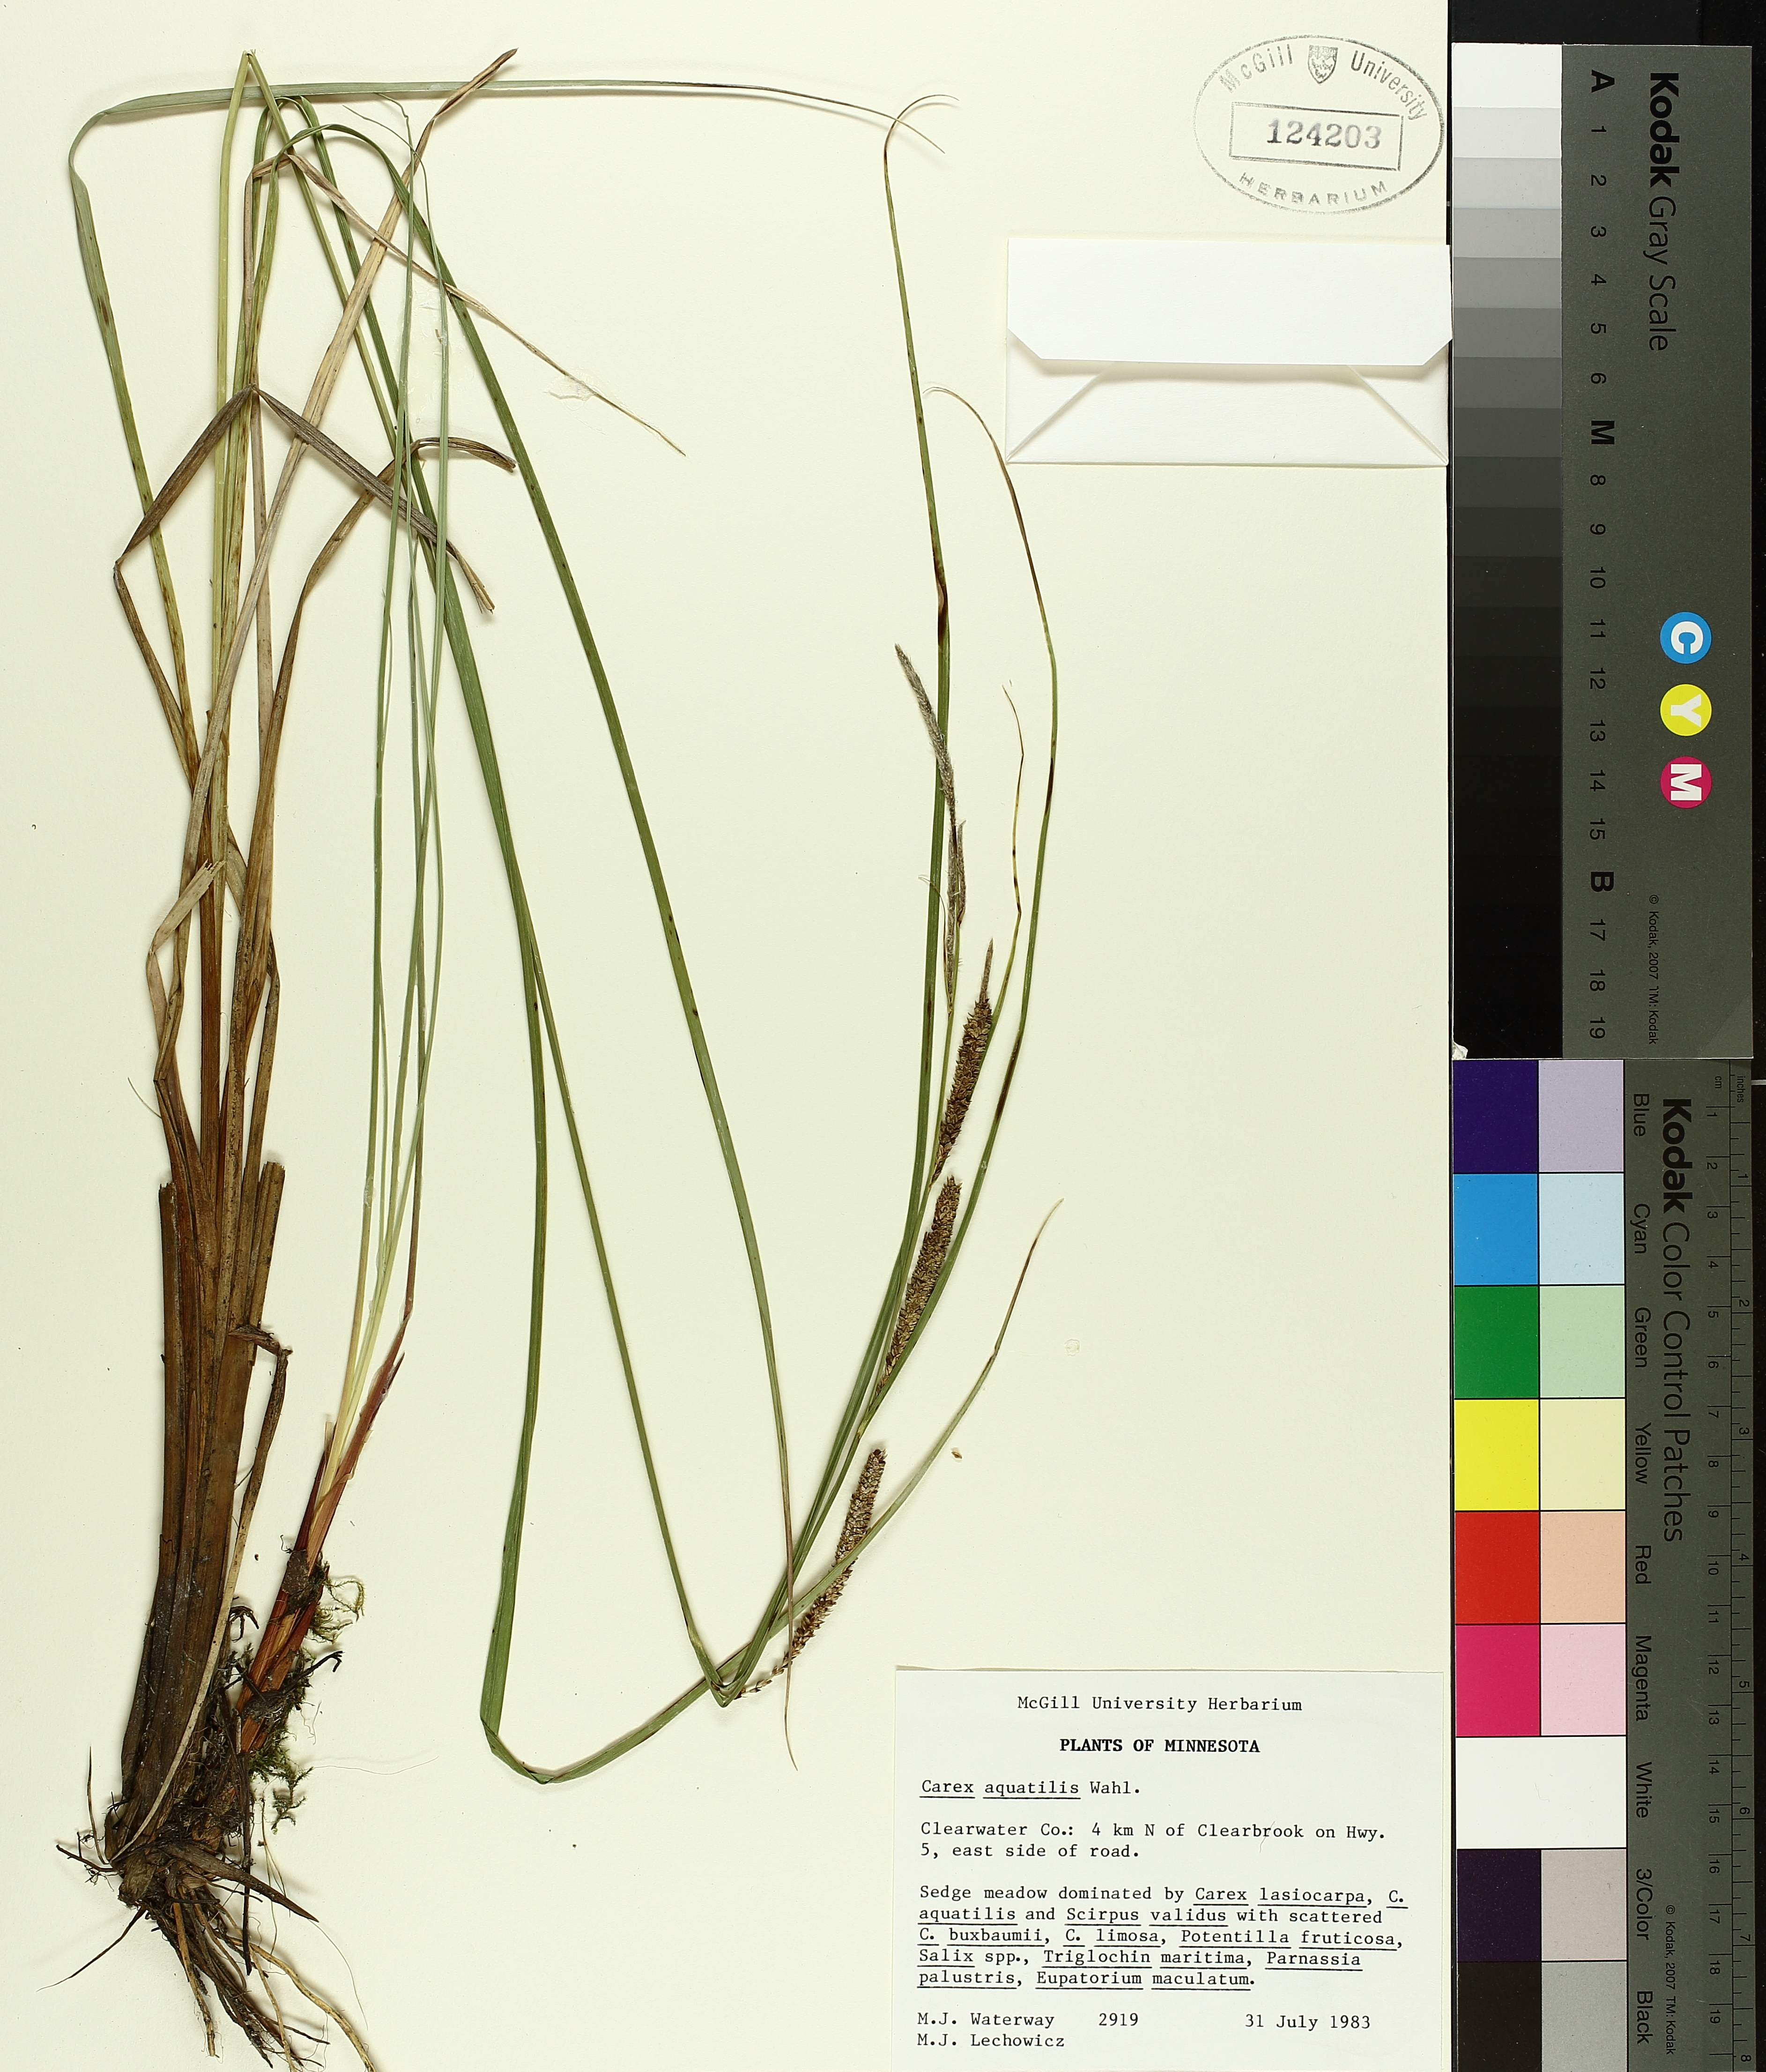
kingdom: Plantae
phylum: Tracheophyta
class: Liliopsida
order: Poales
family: Cyperaceae
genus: Carex
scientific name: Carex aquatilis
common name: Water sedge
